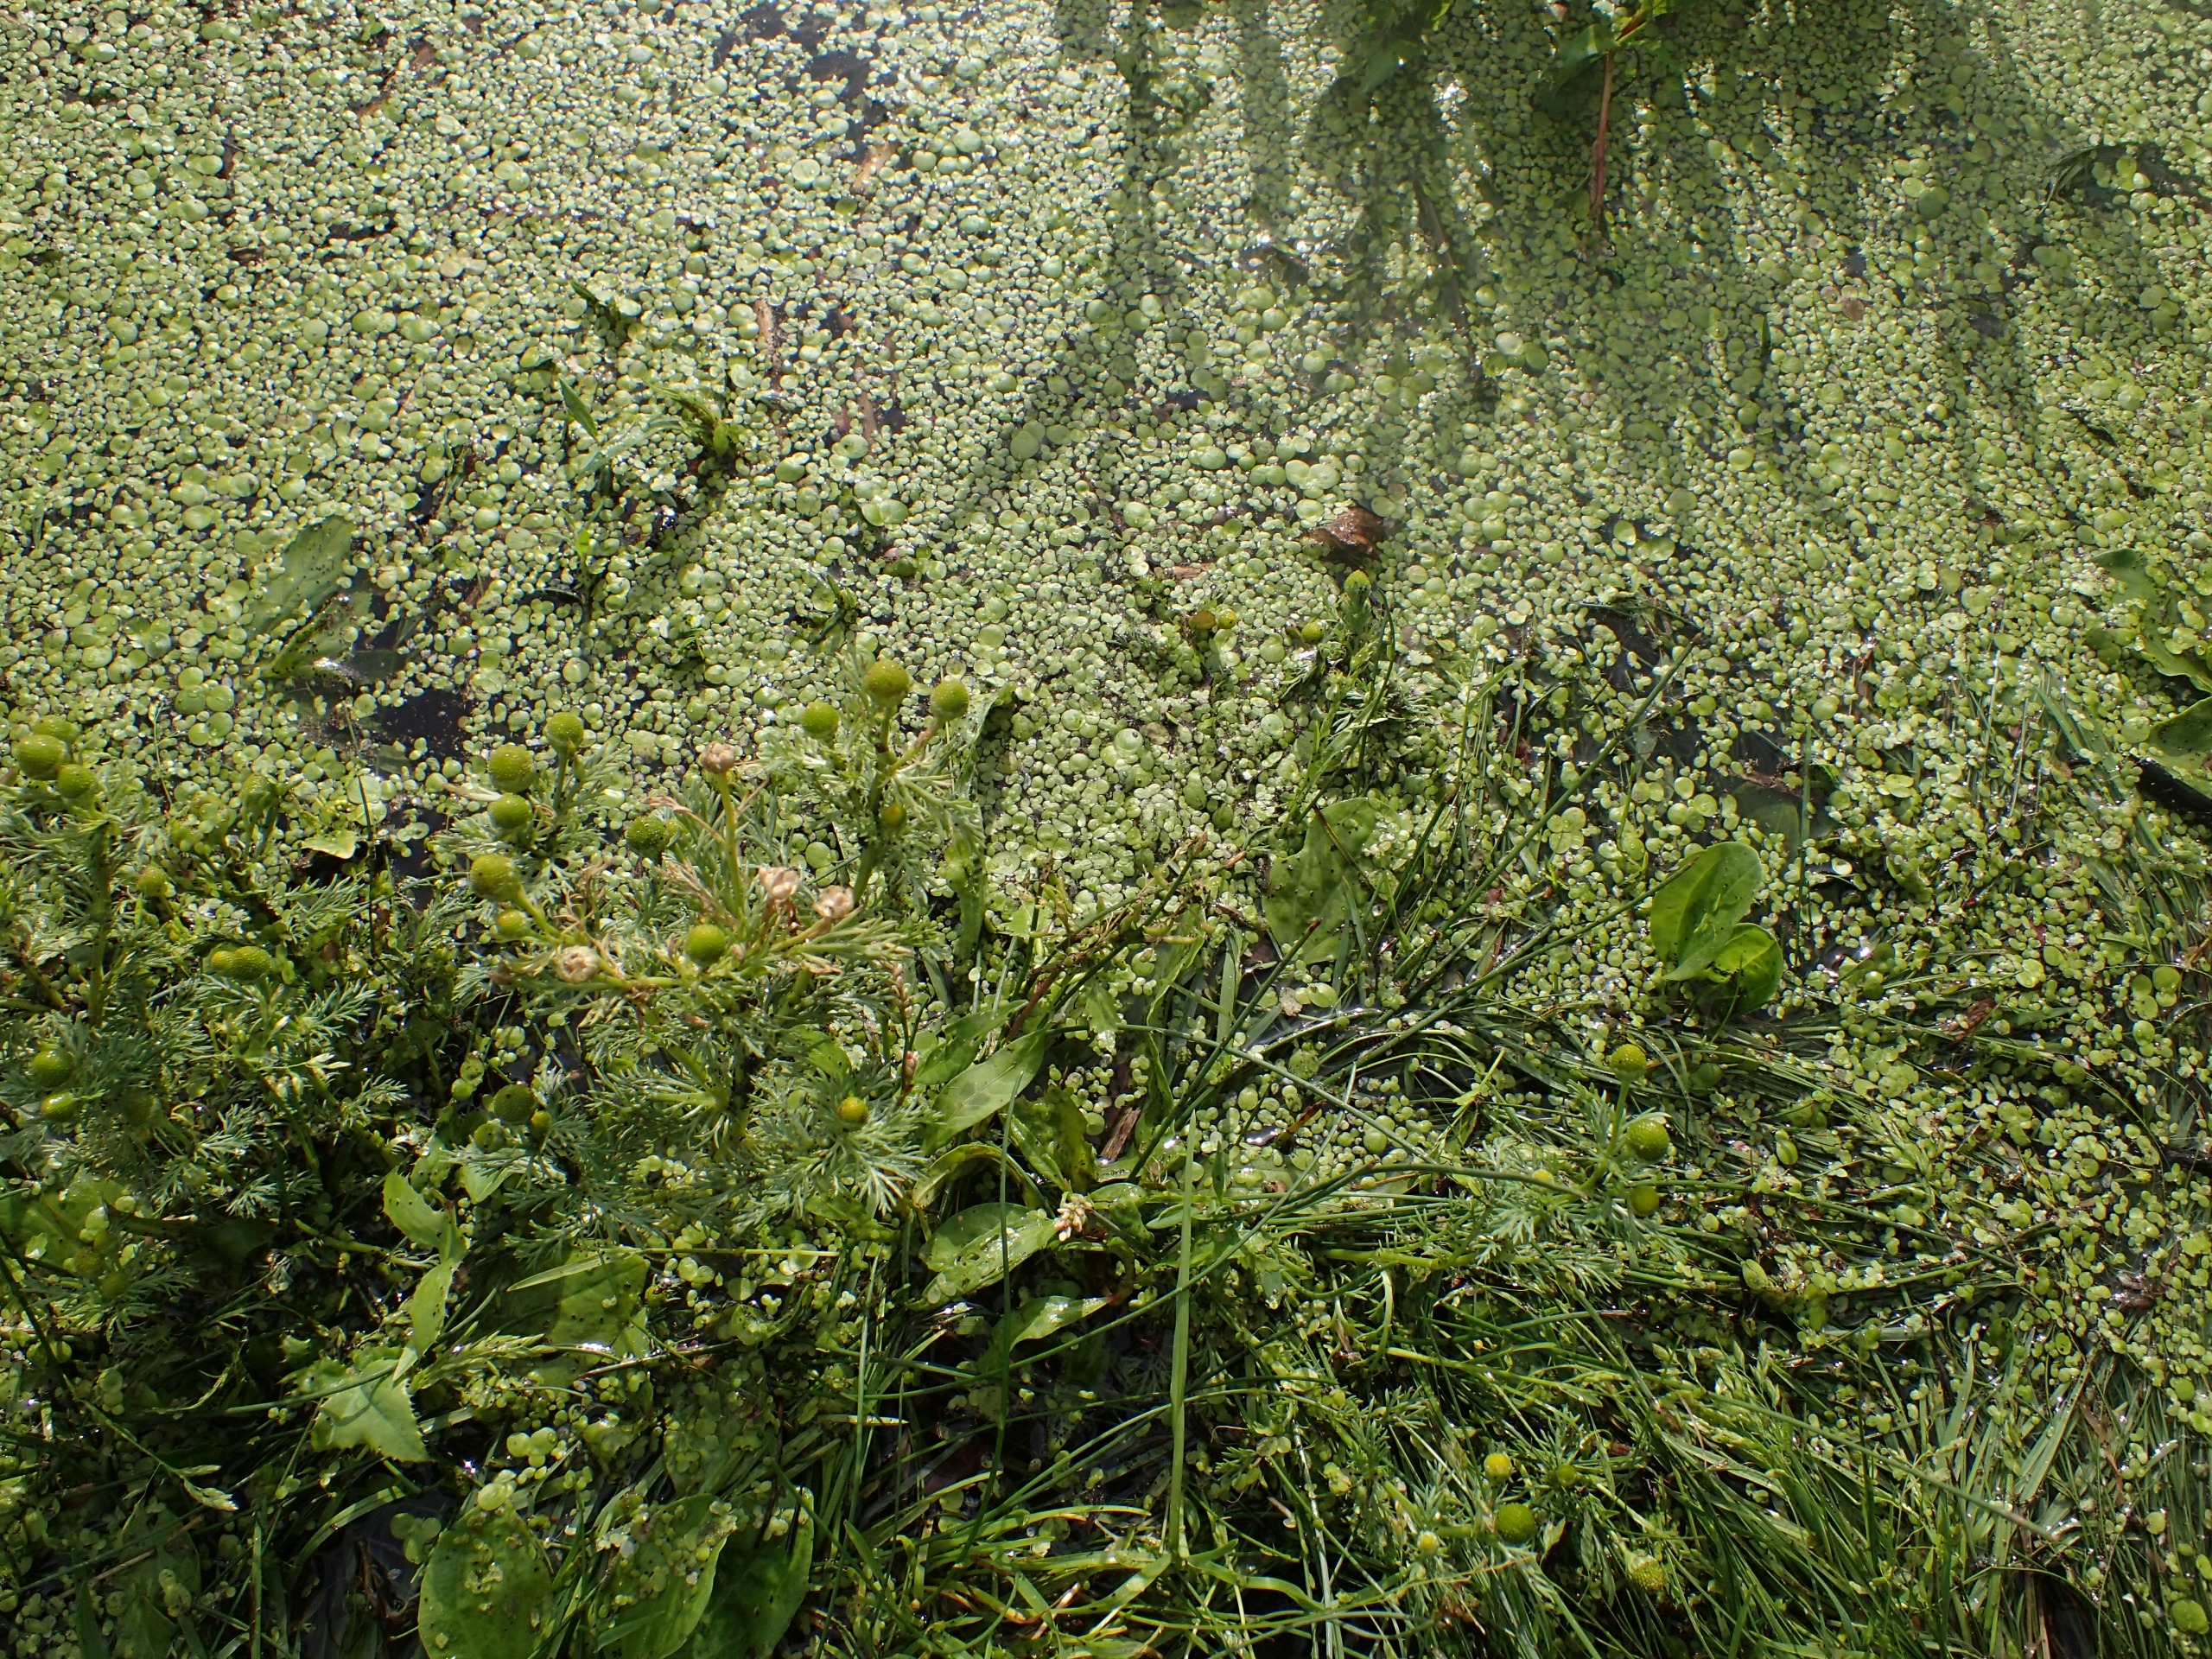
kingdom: Plantae
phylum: Tracheophyta
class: Magnoliopsida
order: Asterales
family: Asteraceae
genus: Matricaria
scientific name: Matricaria discoidea
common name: Skive-kamille
